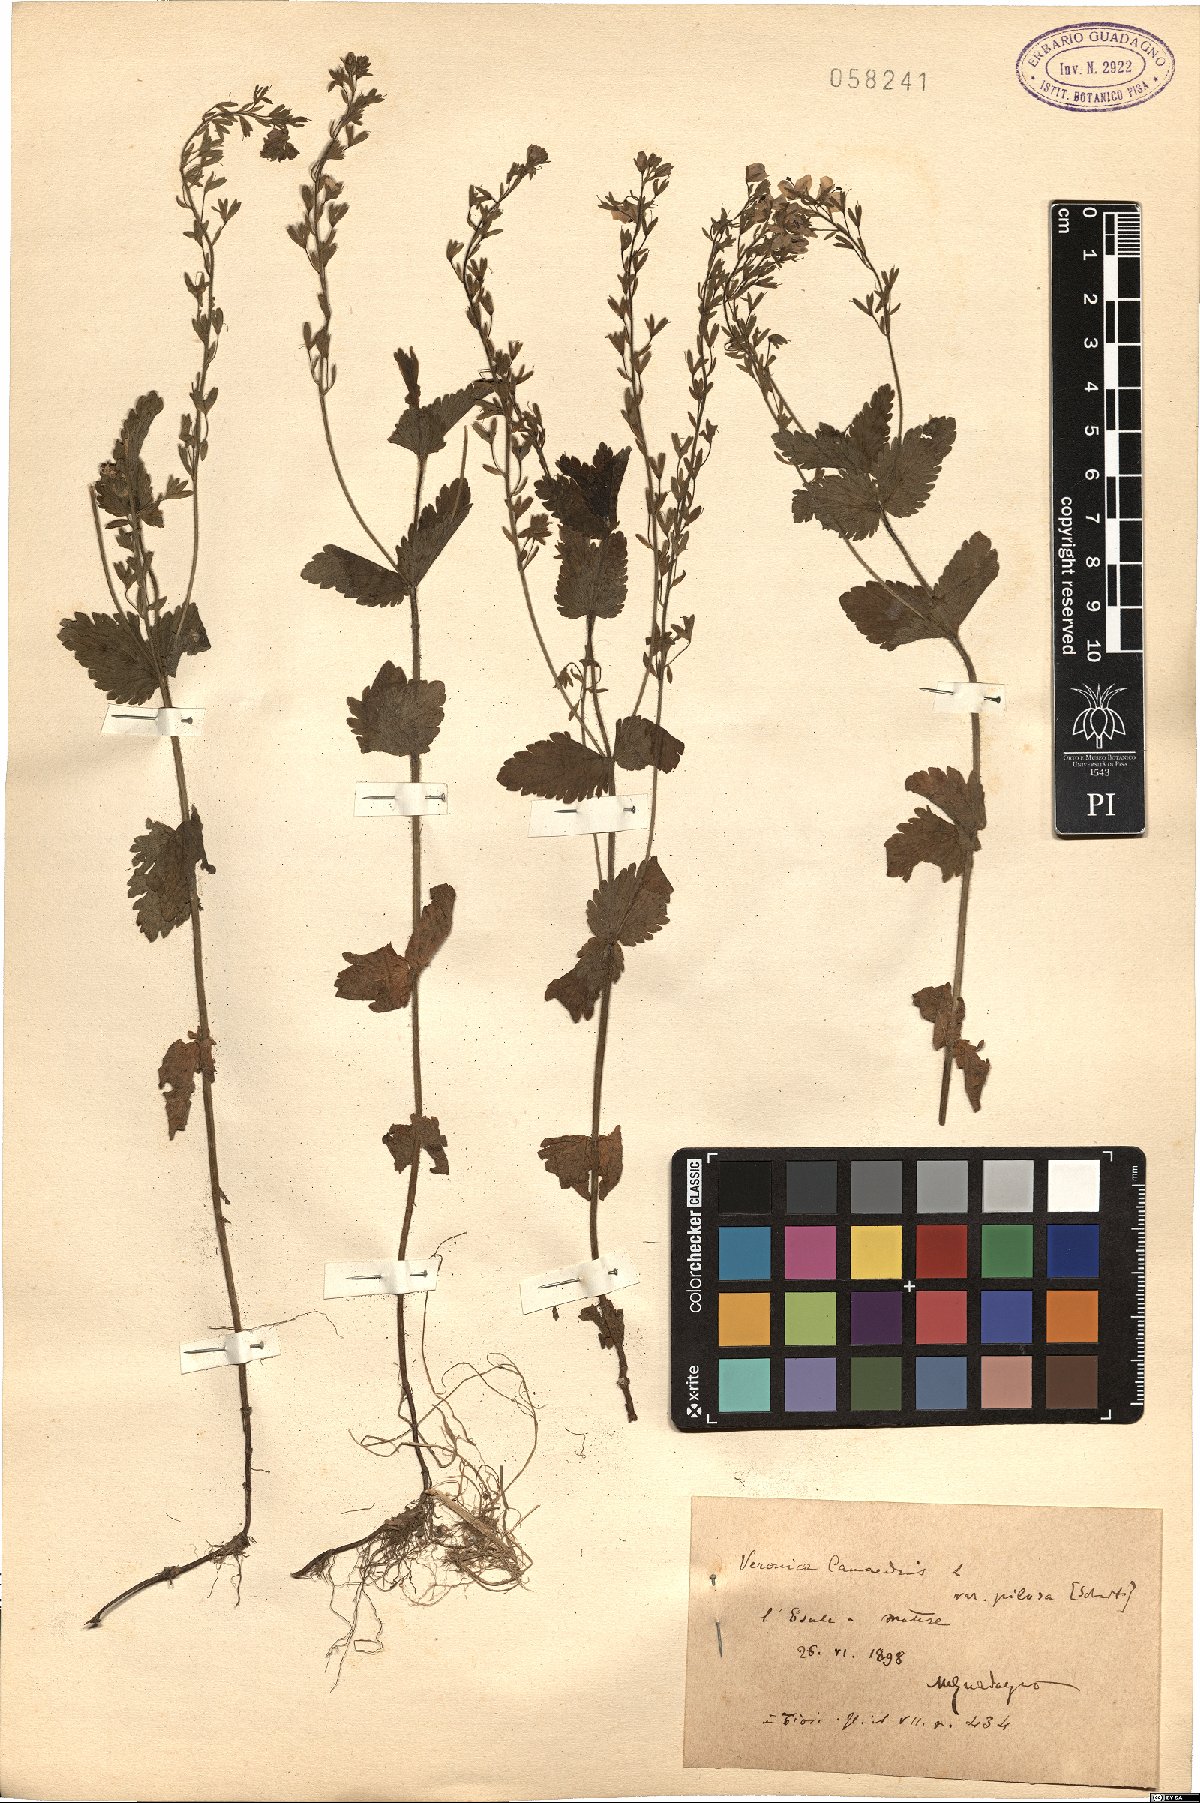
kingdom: Plantae
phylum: Tracheophyta
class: Magnoliopsida
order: Lamiales
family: Plantaginaceae
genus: Veronica
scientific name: Veronica chamaedrys
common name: Germander speedwell
